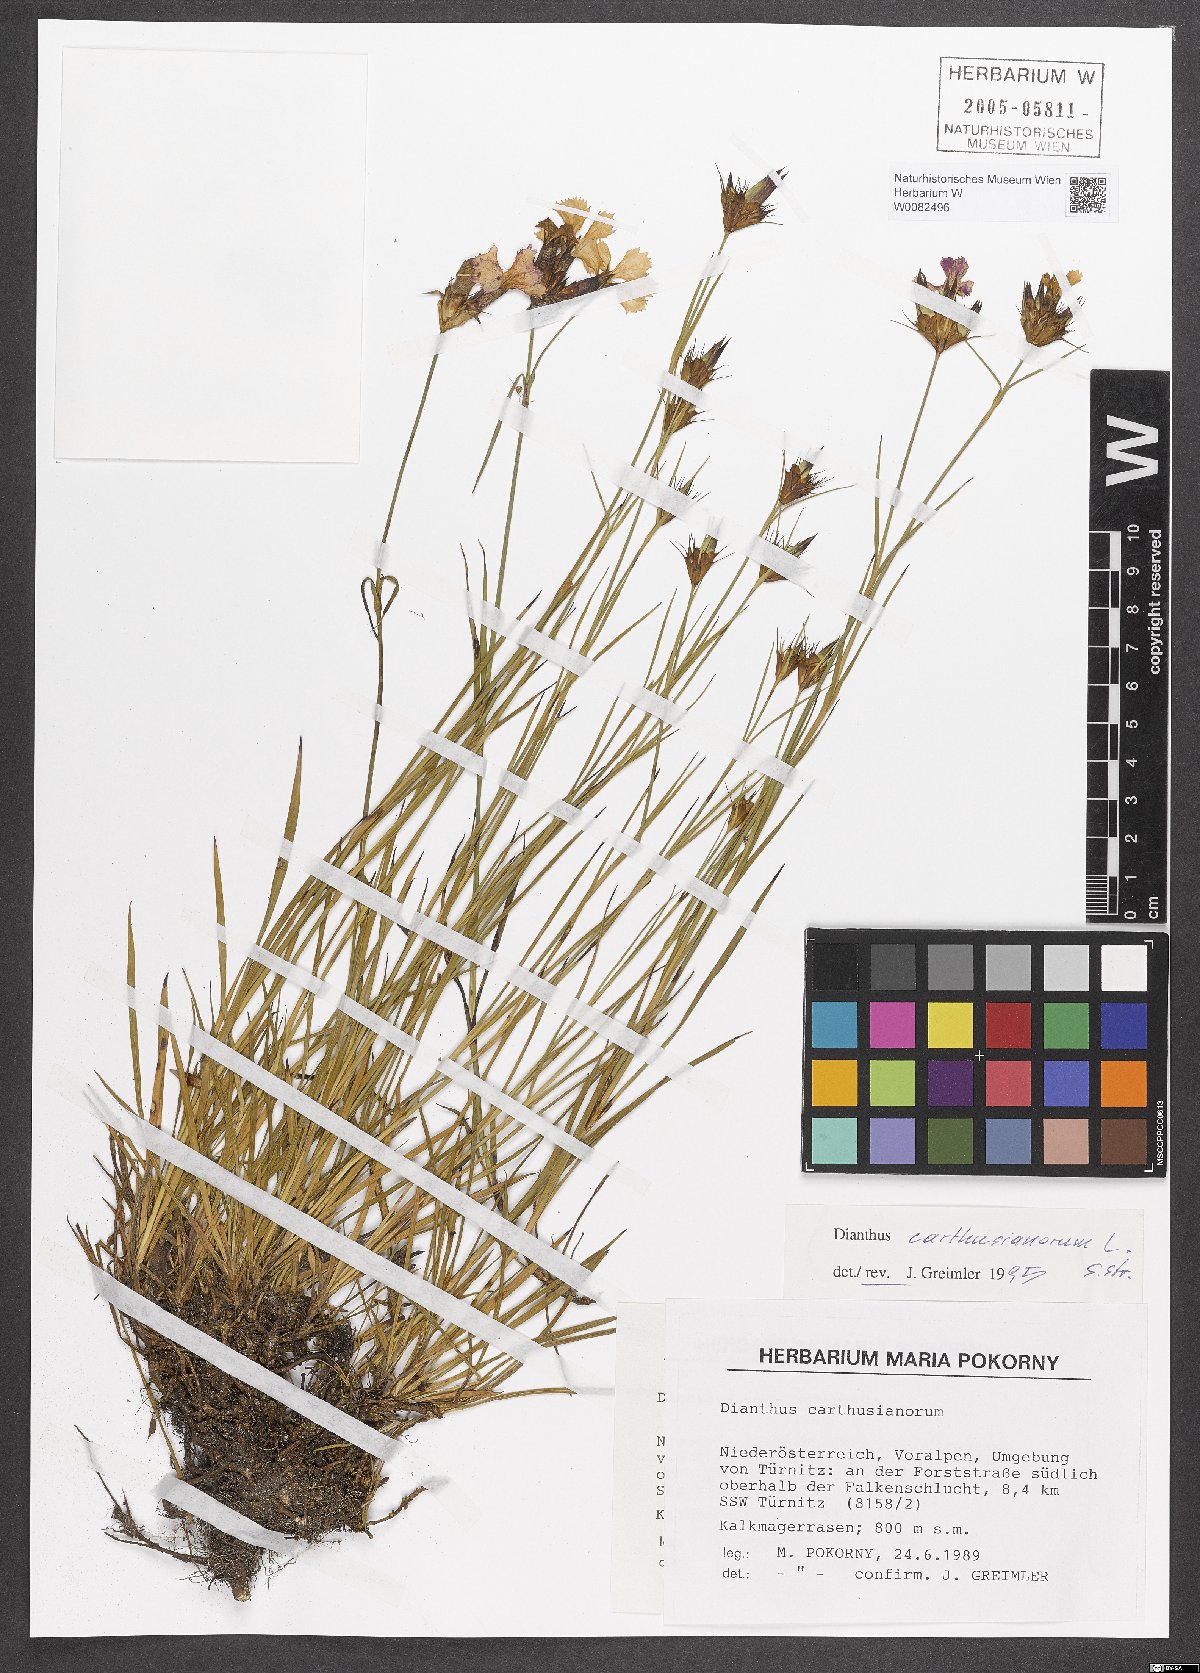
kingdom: Plantae
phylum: Tracheophyta
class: Magnoliopsida
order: Caryophyllales
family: Caryophyllaceae
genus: Dianthus
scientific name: Dianthus carthusianorum
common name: Carthusian pink
